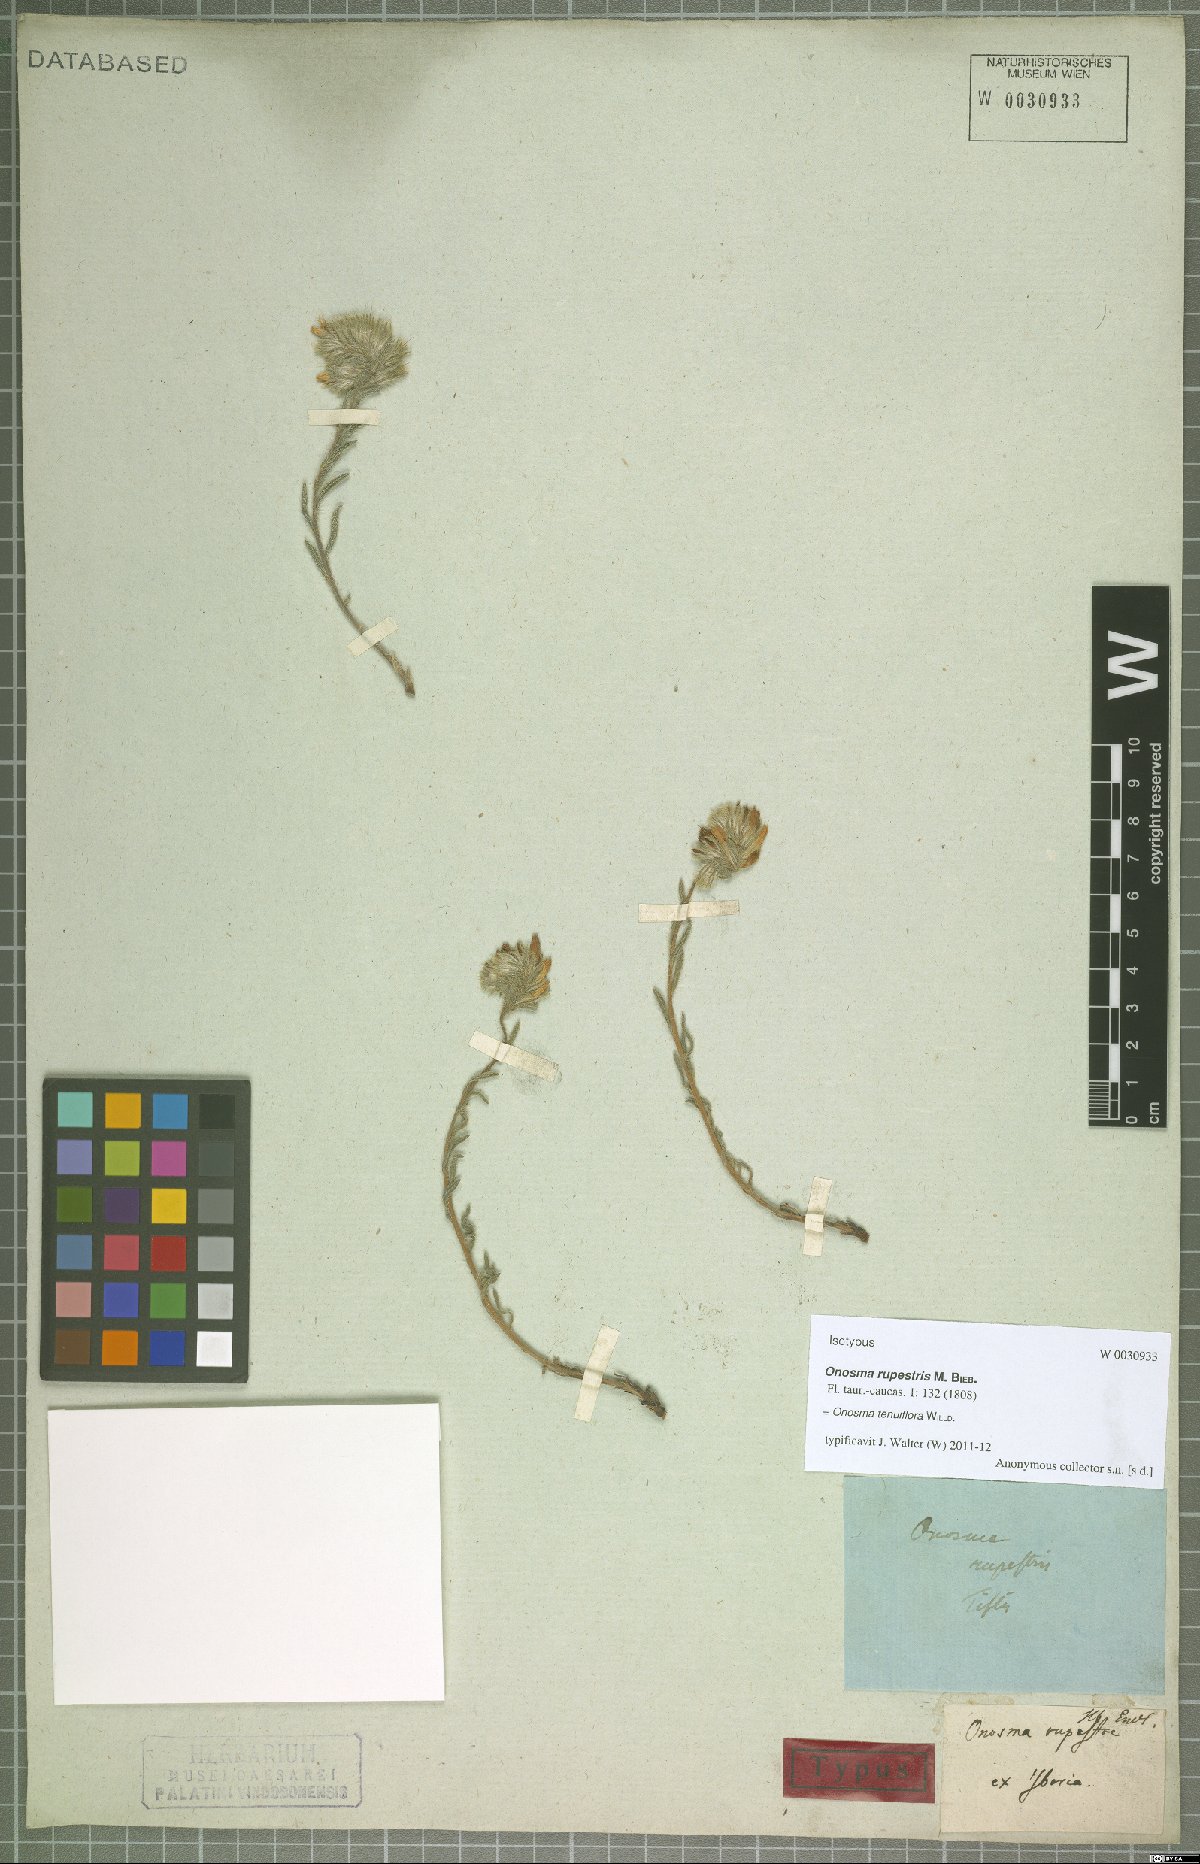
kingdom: Plantae
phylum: Tracheophyta
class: Magnoliopsida
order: Boraginales
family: Boraginaceae
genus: Onosma
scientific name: Onosma tenuiflora
